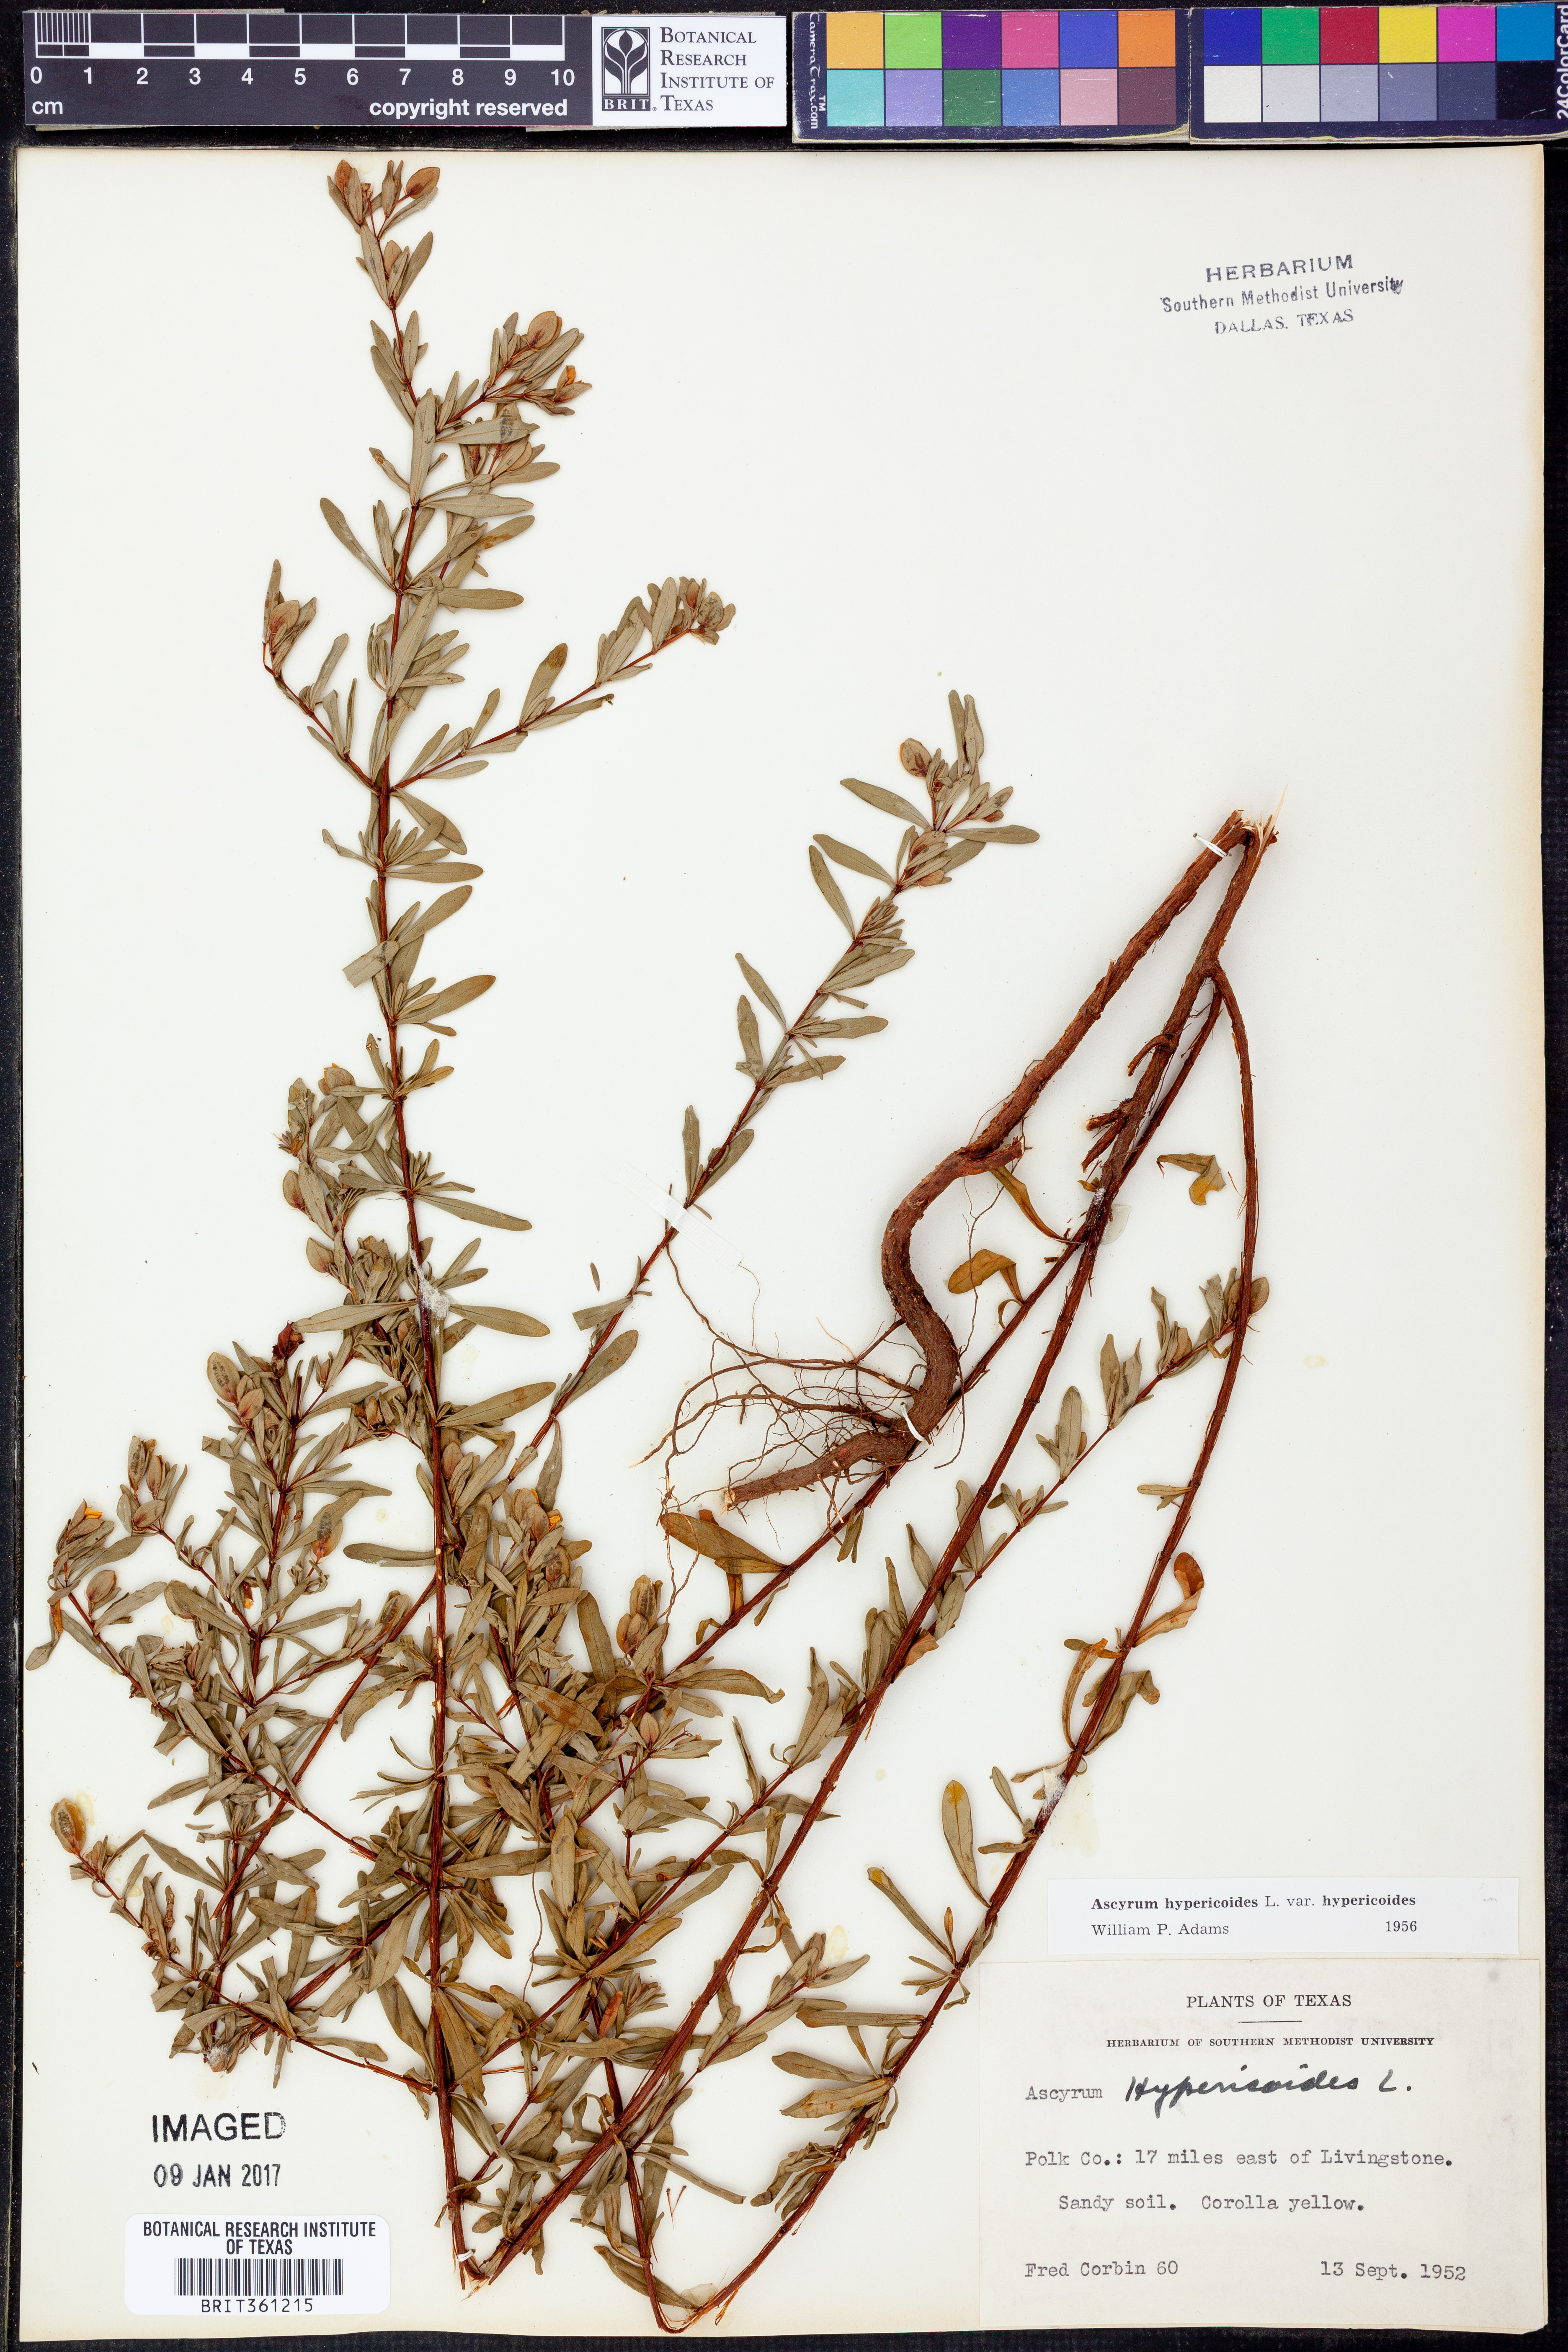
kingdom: Plantae
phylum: Tracheophyta
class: Magnoliopsida
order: Malpighiales
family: Hypericaceae
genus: Hypericum
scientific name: Hypericum hypericoides
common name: St. andrew's cross
